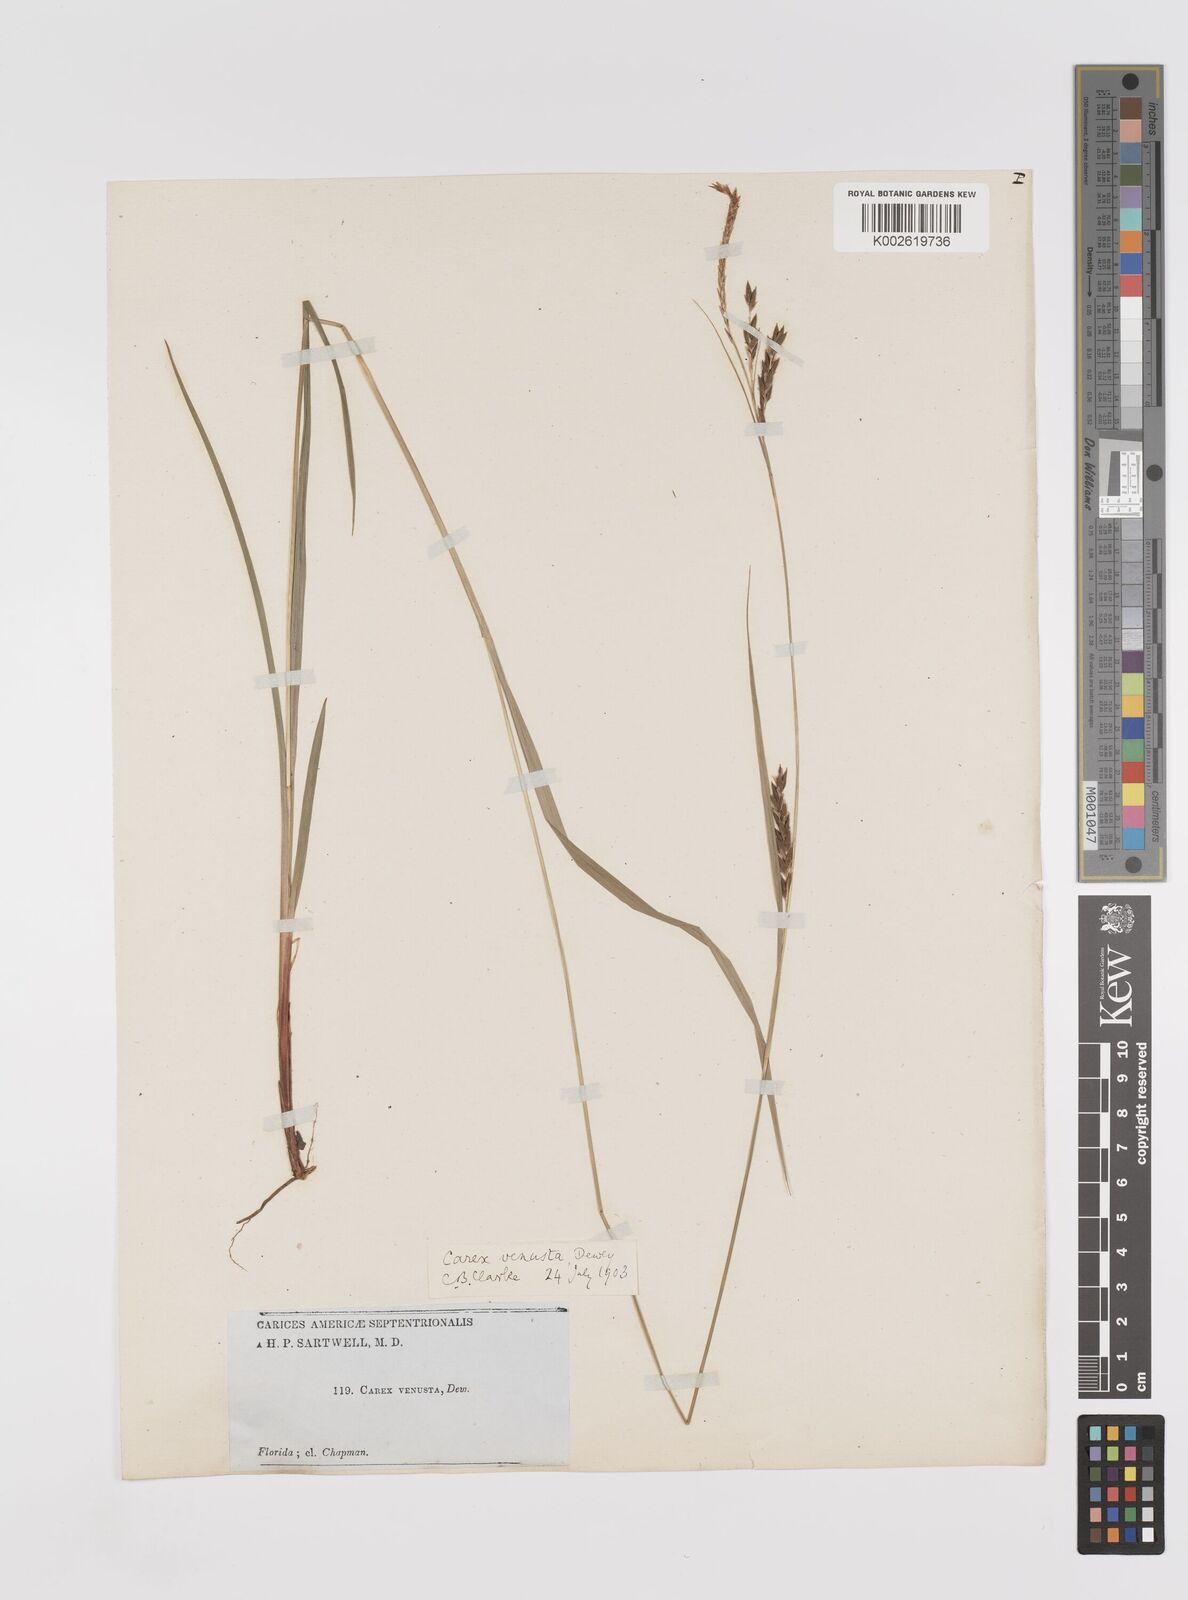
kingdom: Plantae
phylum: Tracheophyta
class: Liliopsida
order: Poales
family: Cyperaceae
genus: Carex
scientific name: Carex venusta
